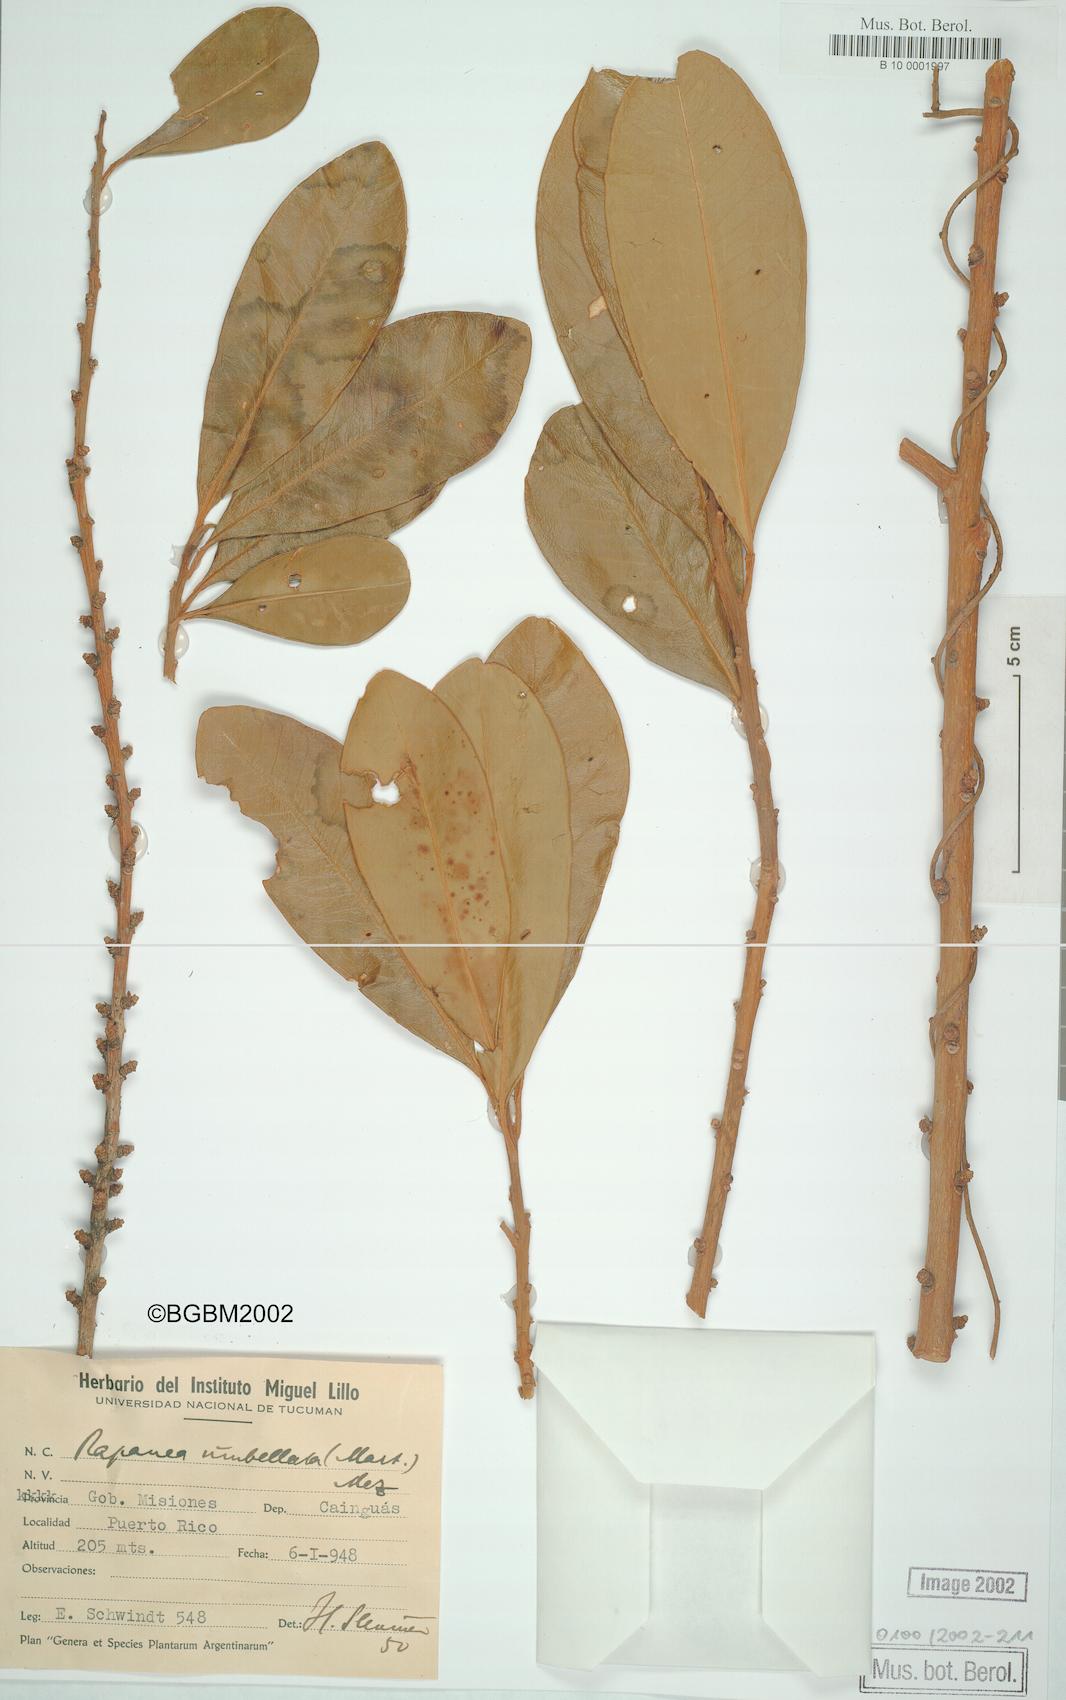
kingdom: Plantae
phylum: Tracheophyta
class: Magnoliopsida
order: Ericales
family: Primulaceae
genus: Myrsine
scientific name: Myrsine umbellata
